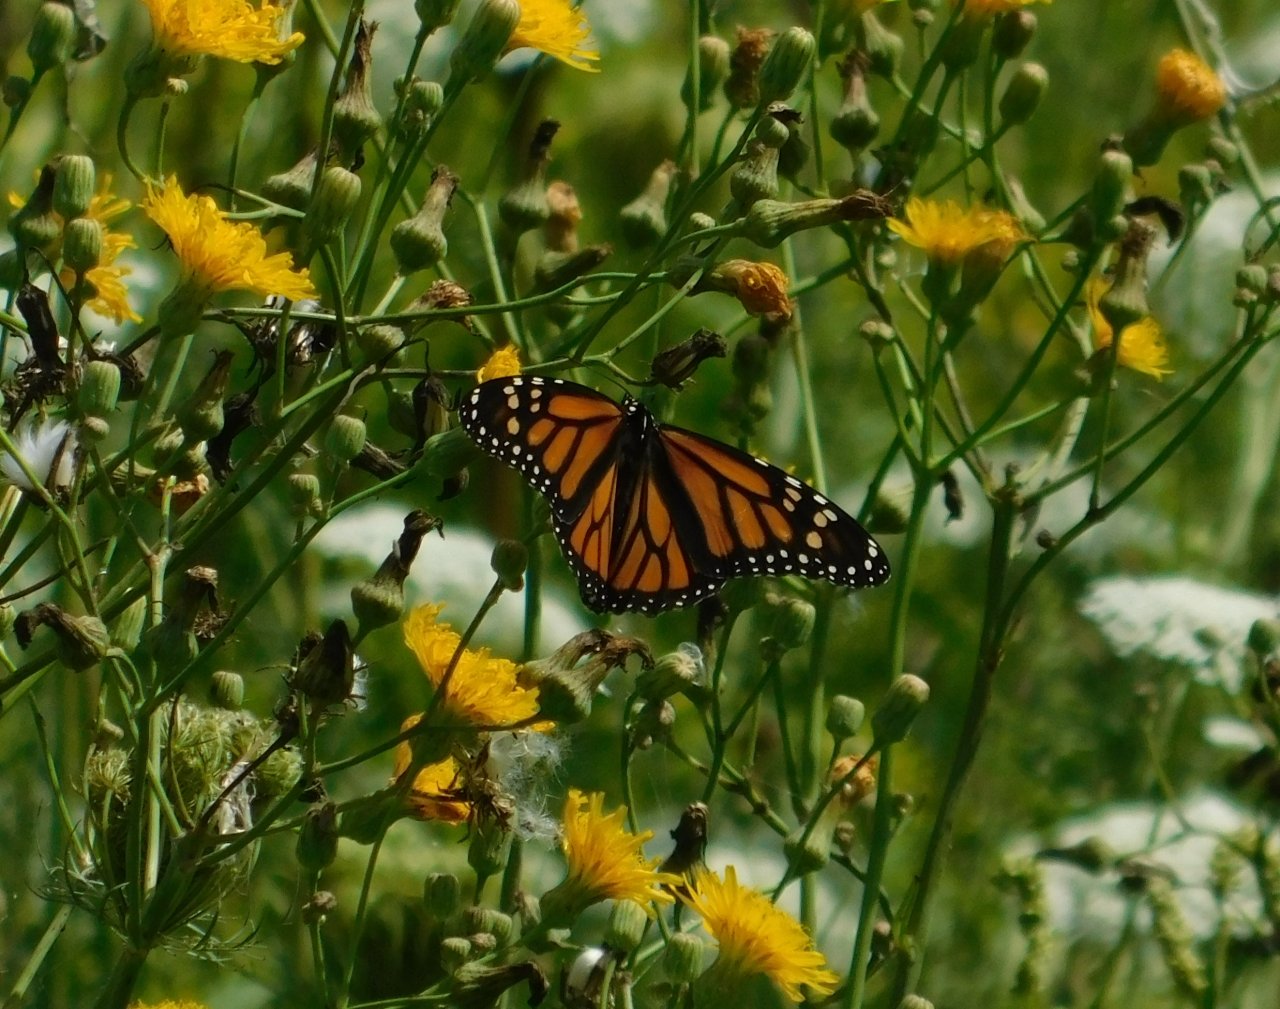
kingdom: Animalia
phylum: Arthropoda
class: Insecta
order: Lepidoptera
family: Nymphalidae
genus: Danaus
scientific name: Danaus plexippus
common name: Monarch
